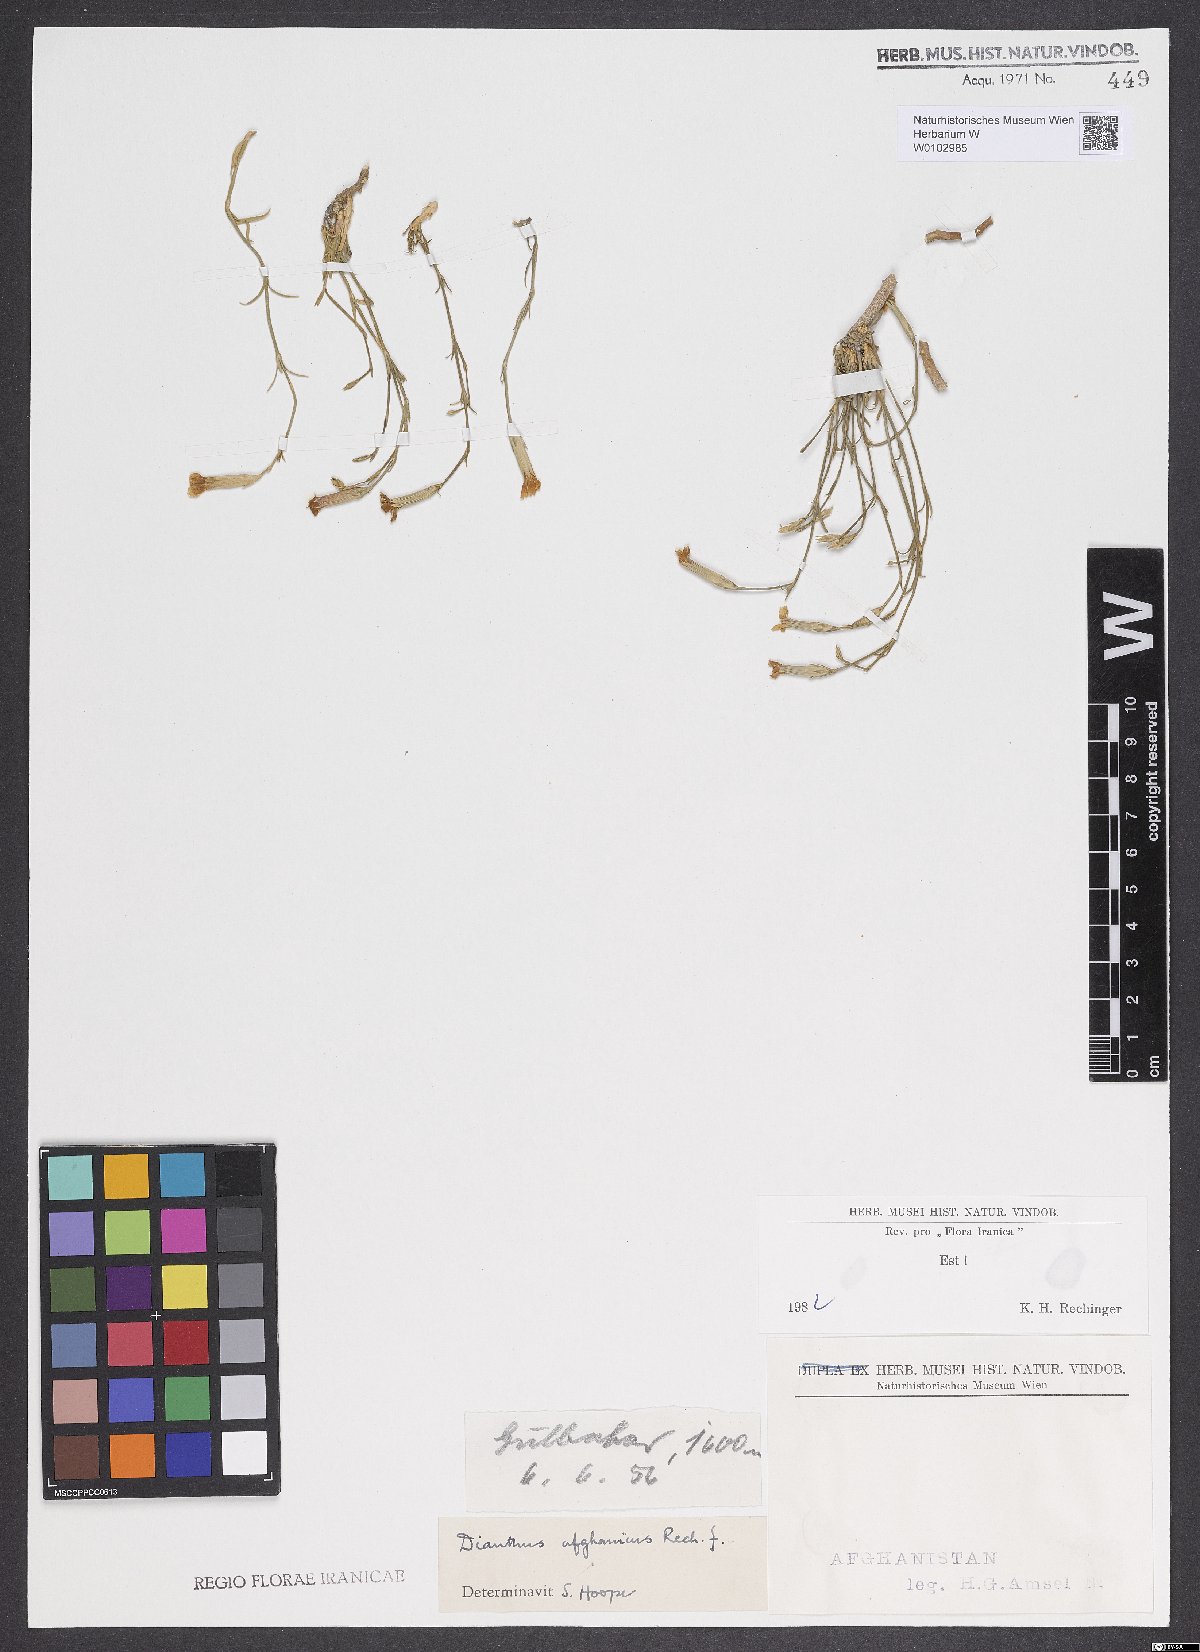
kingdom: Plantae
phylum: Tracheophyta
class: Magnoliopsida
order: Caryophyllales
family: Caryophyllaceae
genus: Dianthus
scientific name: Dianthus afghanicus
